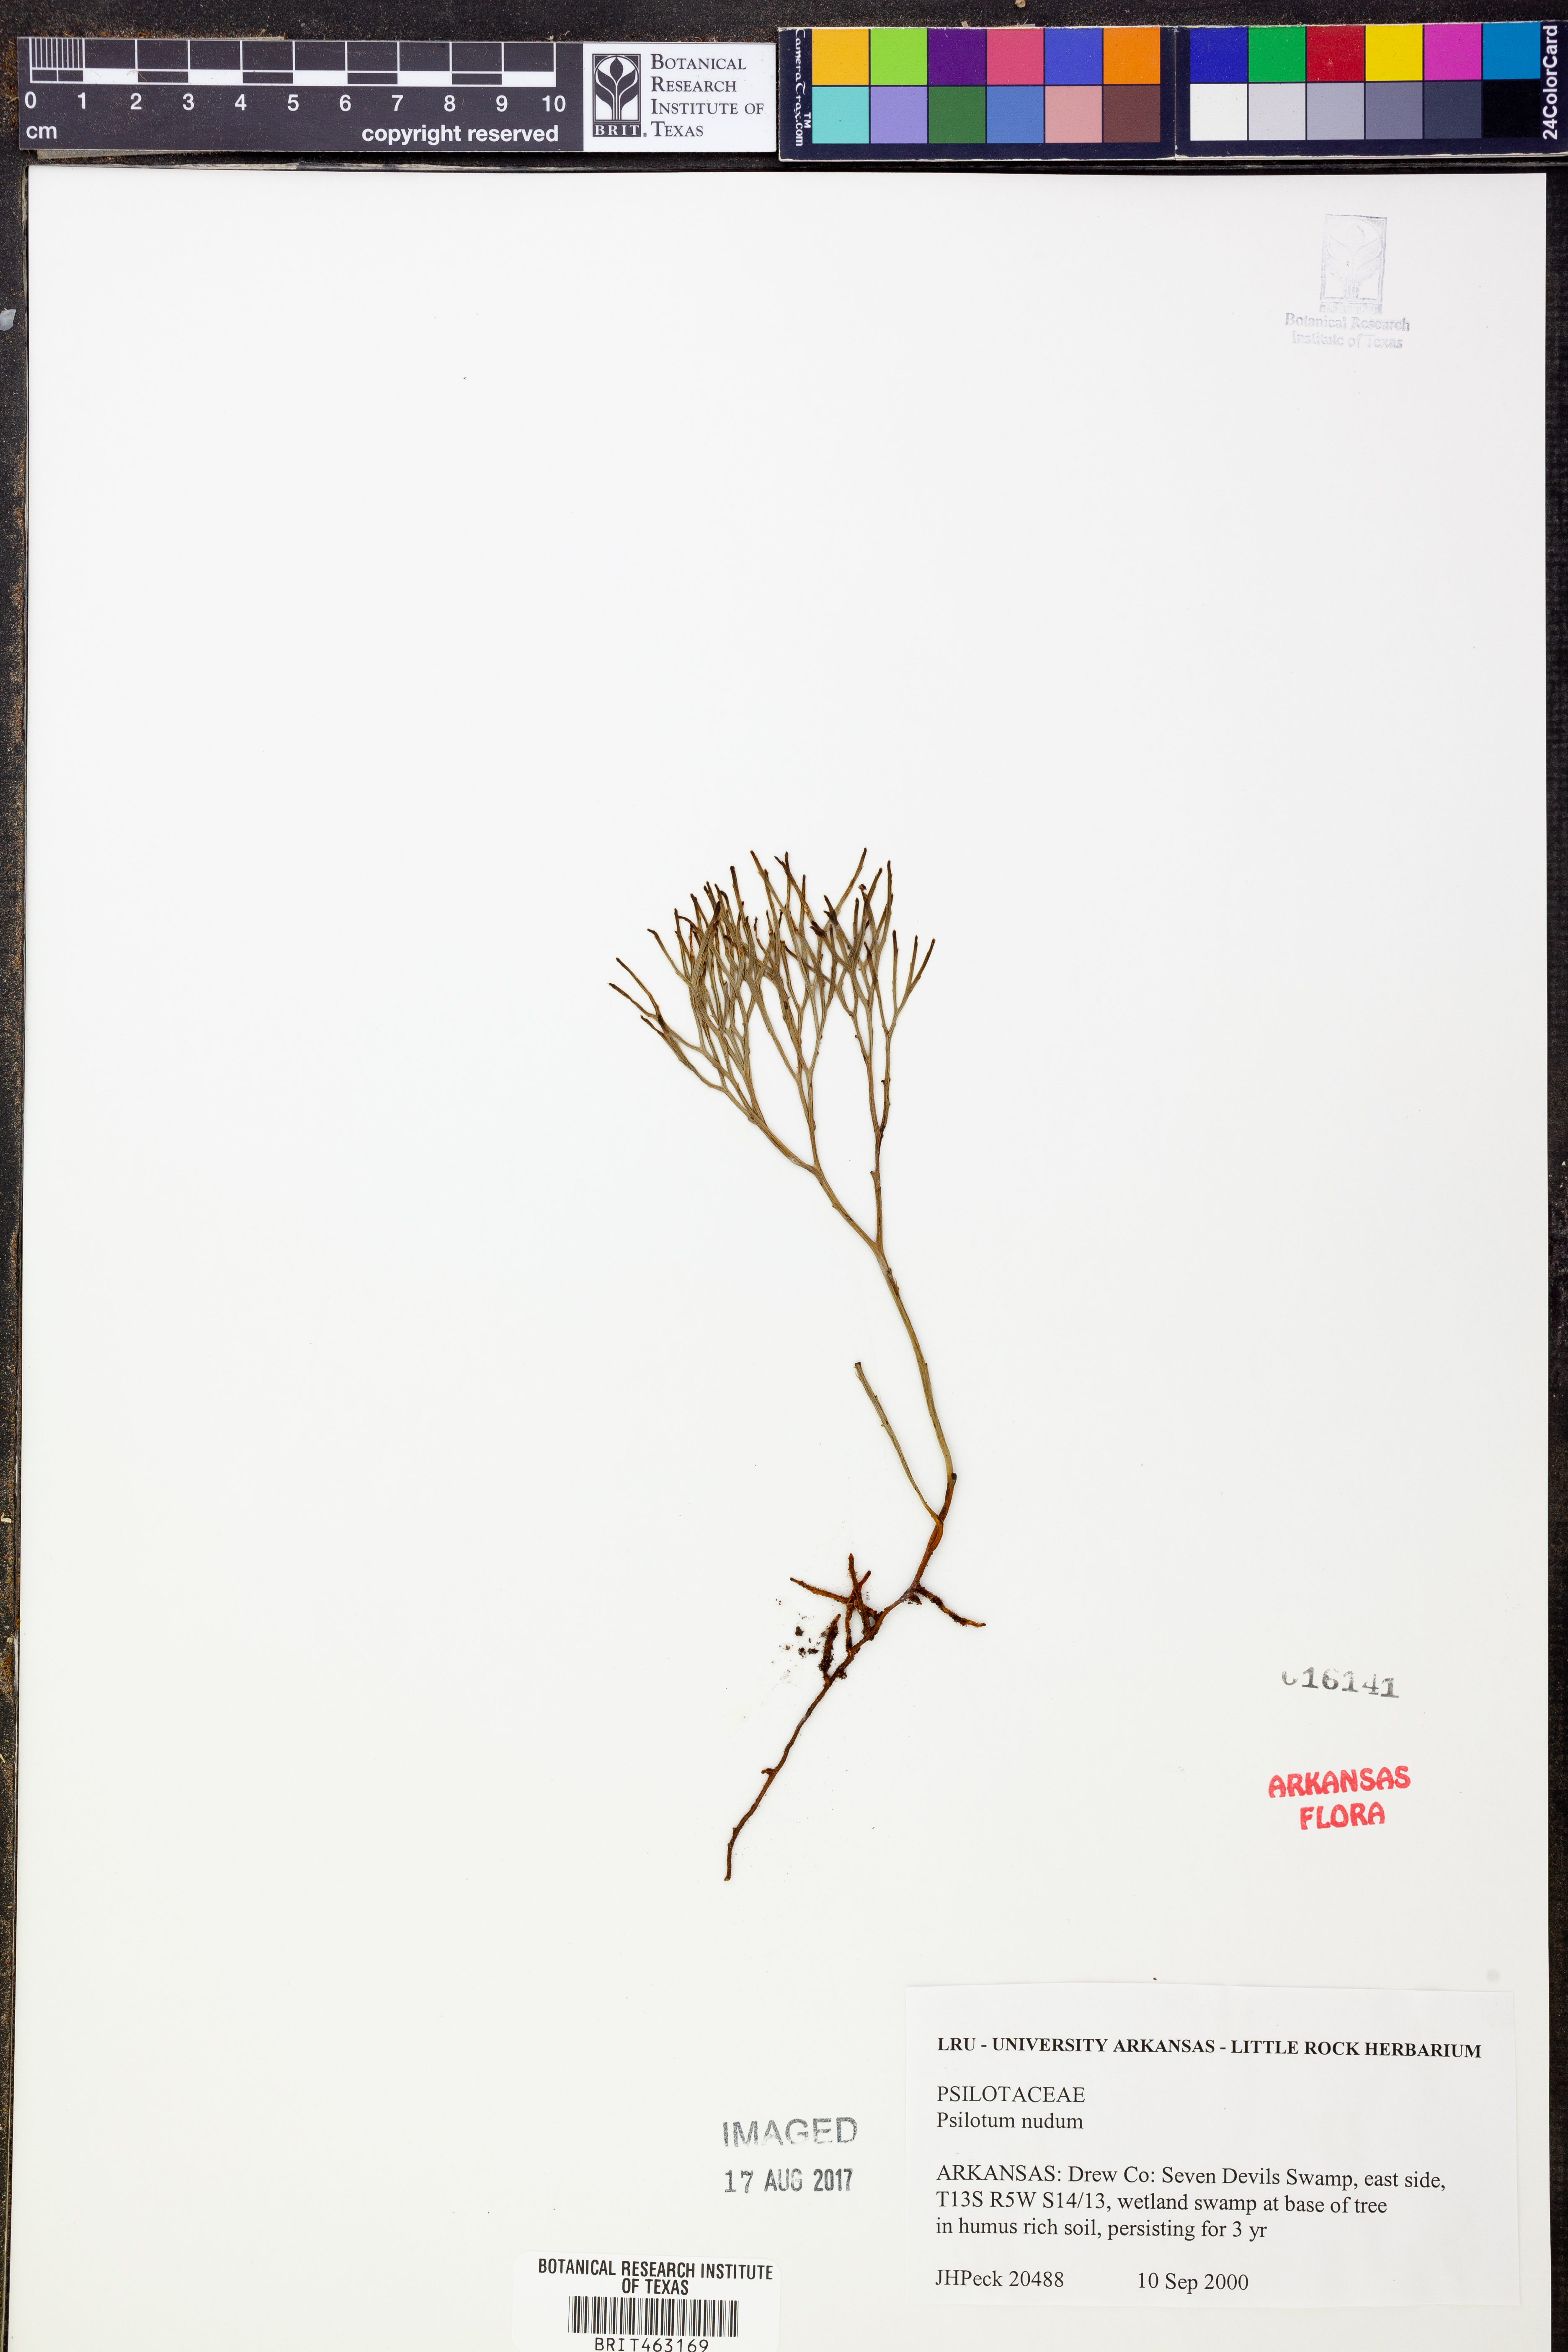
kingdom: Plantae
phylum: Tracheophyta
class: Polypodiopsida
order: Psilotales
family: Psilotaceae
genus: Psilotum
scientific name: Psilotum nudum
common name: Skeleton fork fern
